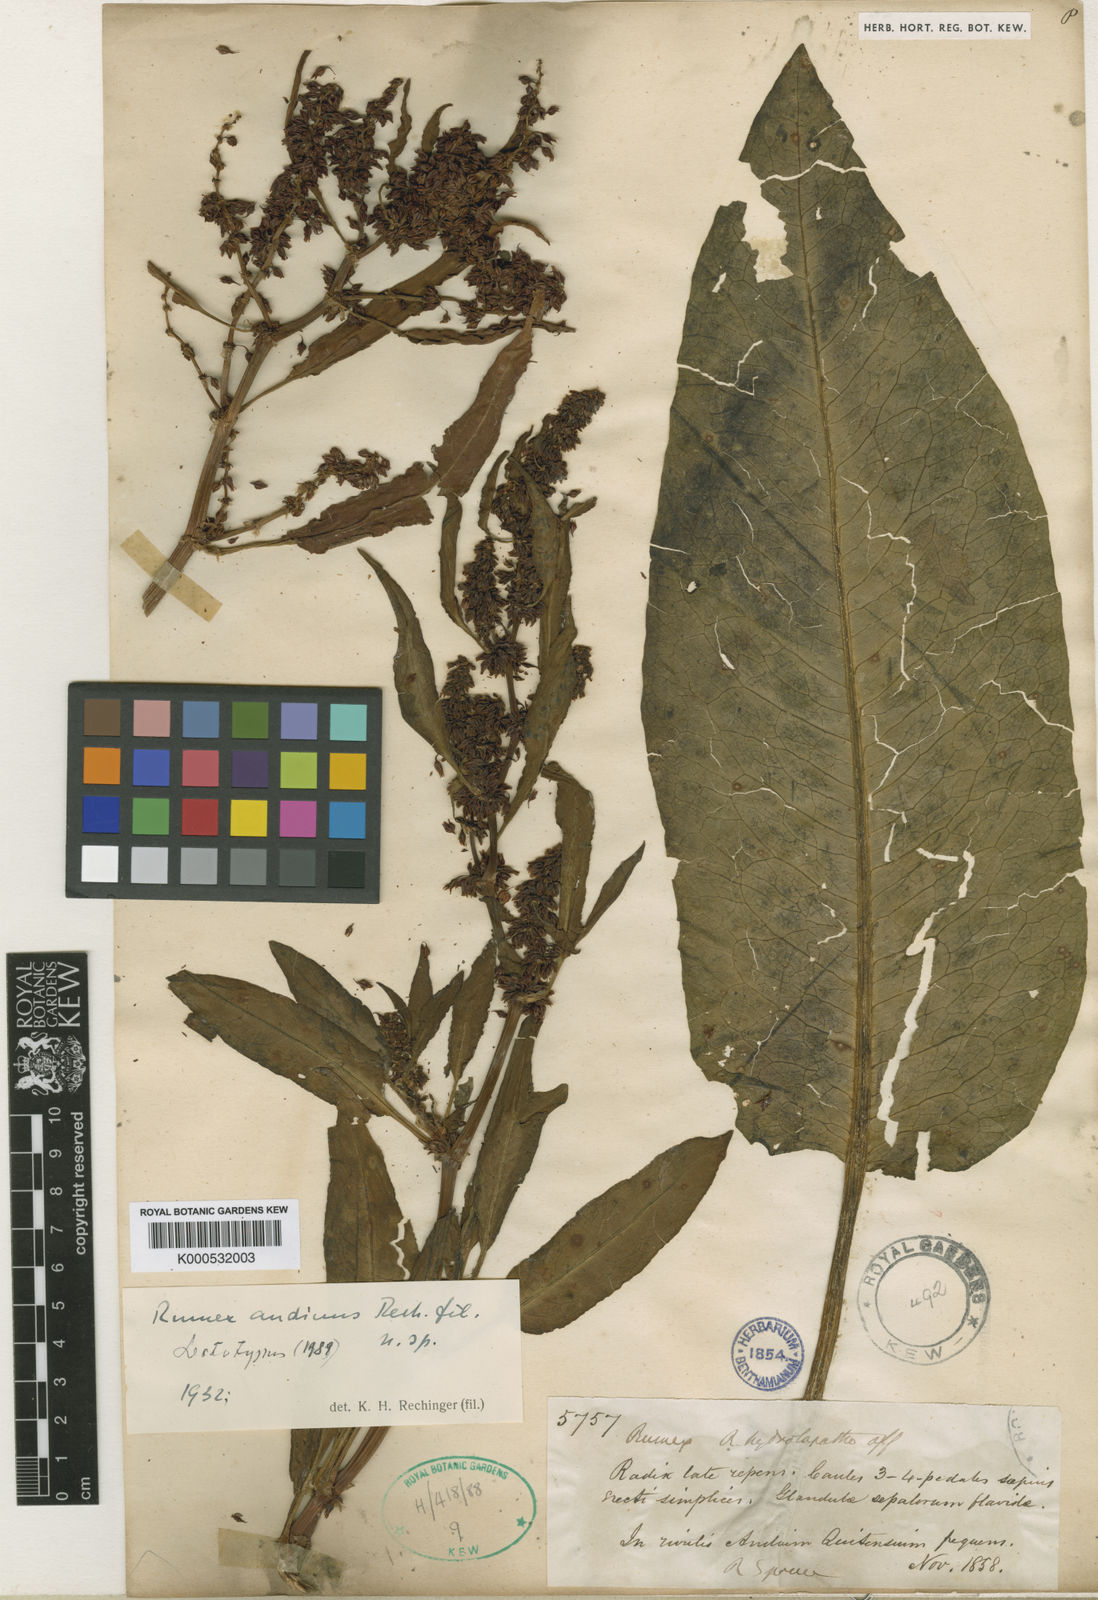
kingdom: Plantae
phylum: Tracheophyta
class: Magnoliopsida
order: Caryophyllales
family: Polygonaceae
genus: Rumex
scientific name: Rumex andinus
